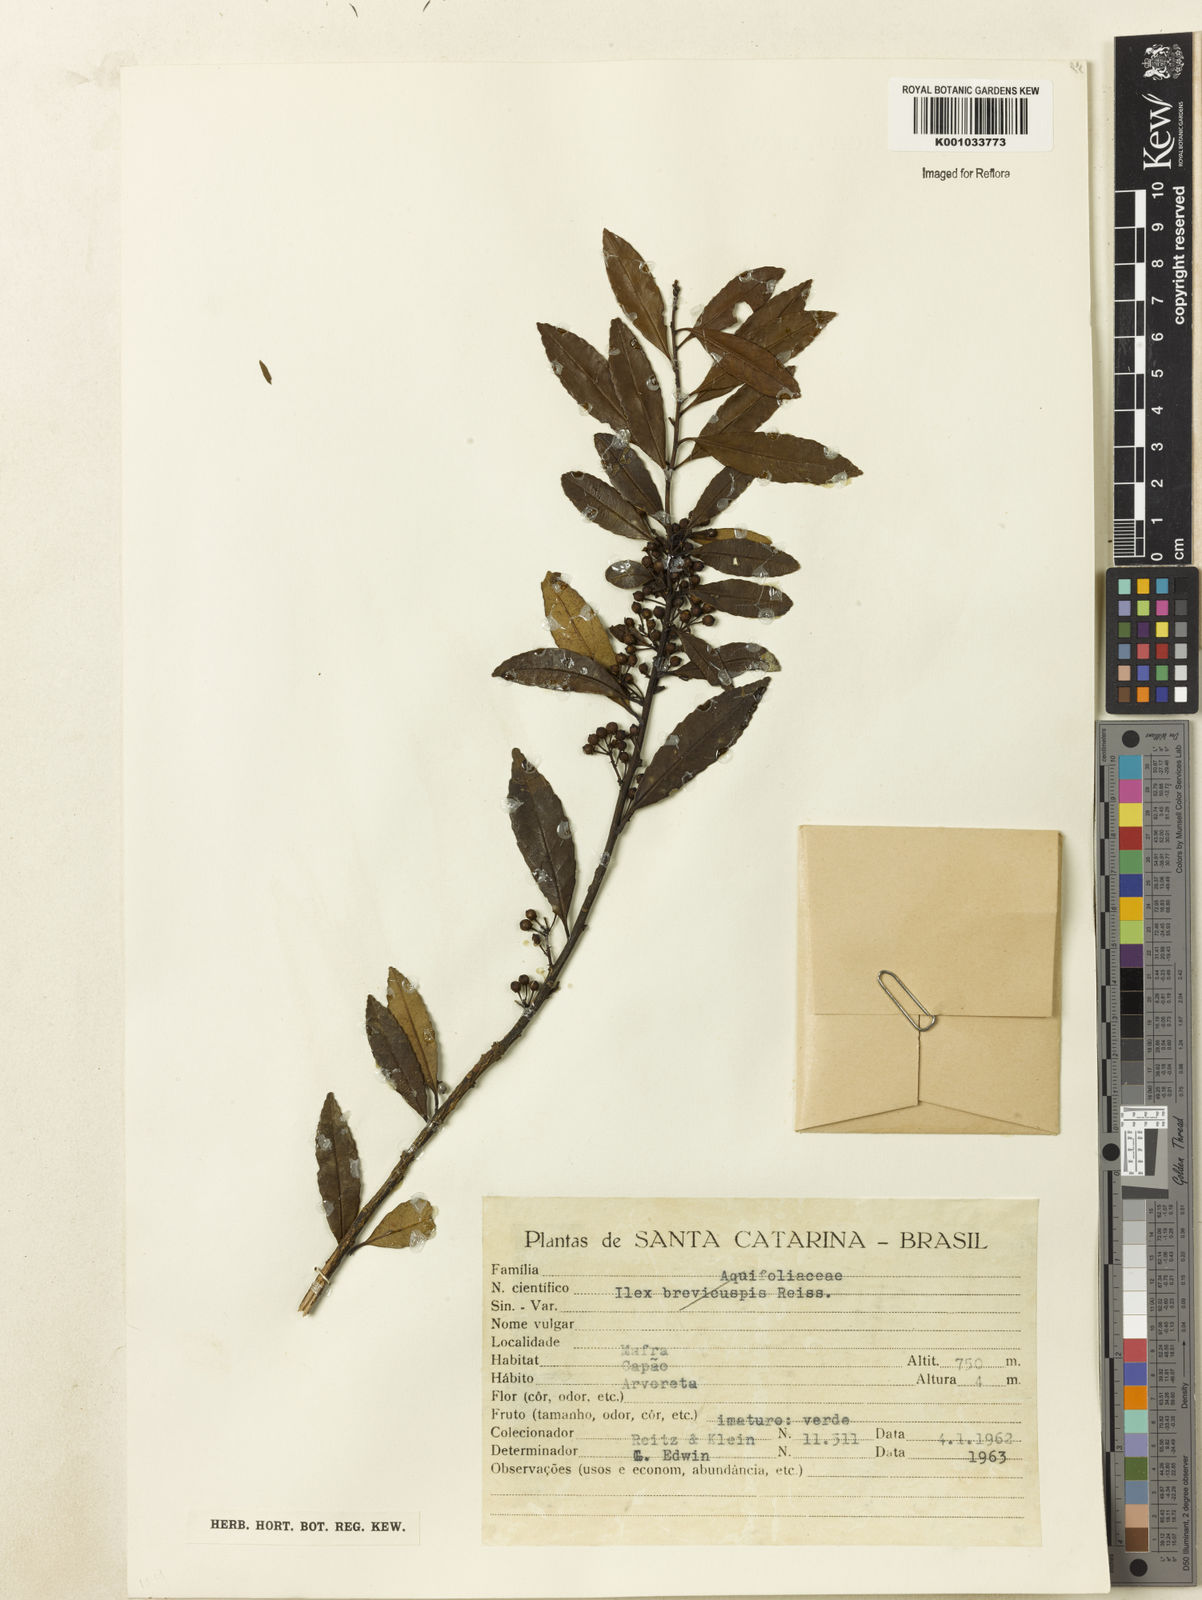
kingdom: Plantae
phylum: Tracheophyta
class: Magnoliopsida
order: Aquifoliales
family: Aquifoliaceae
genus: Ilex
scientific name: Ilex dumosa
